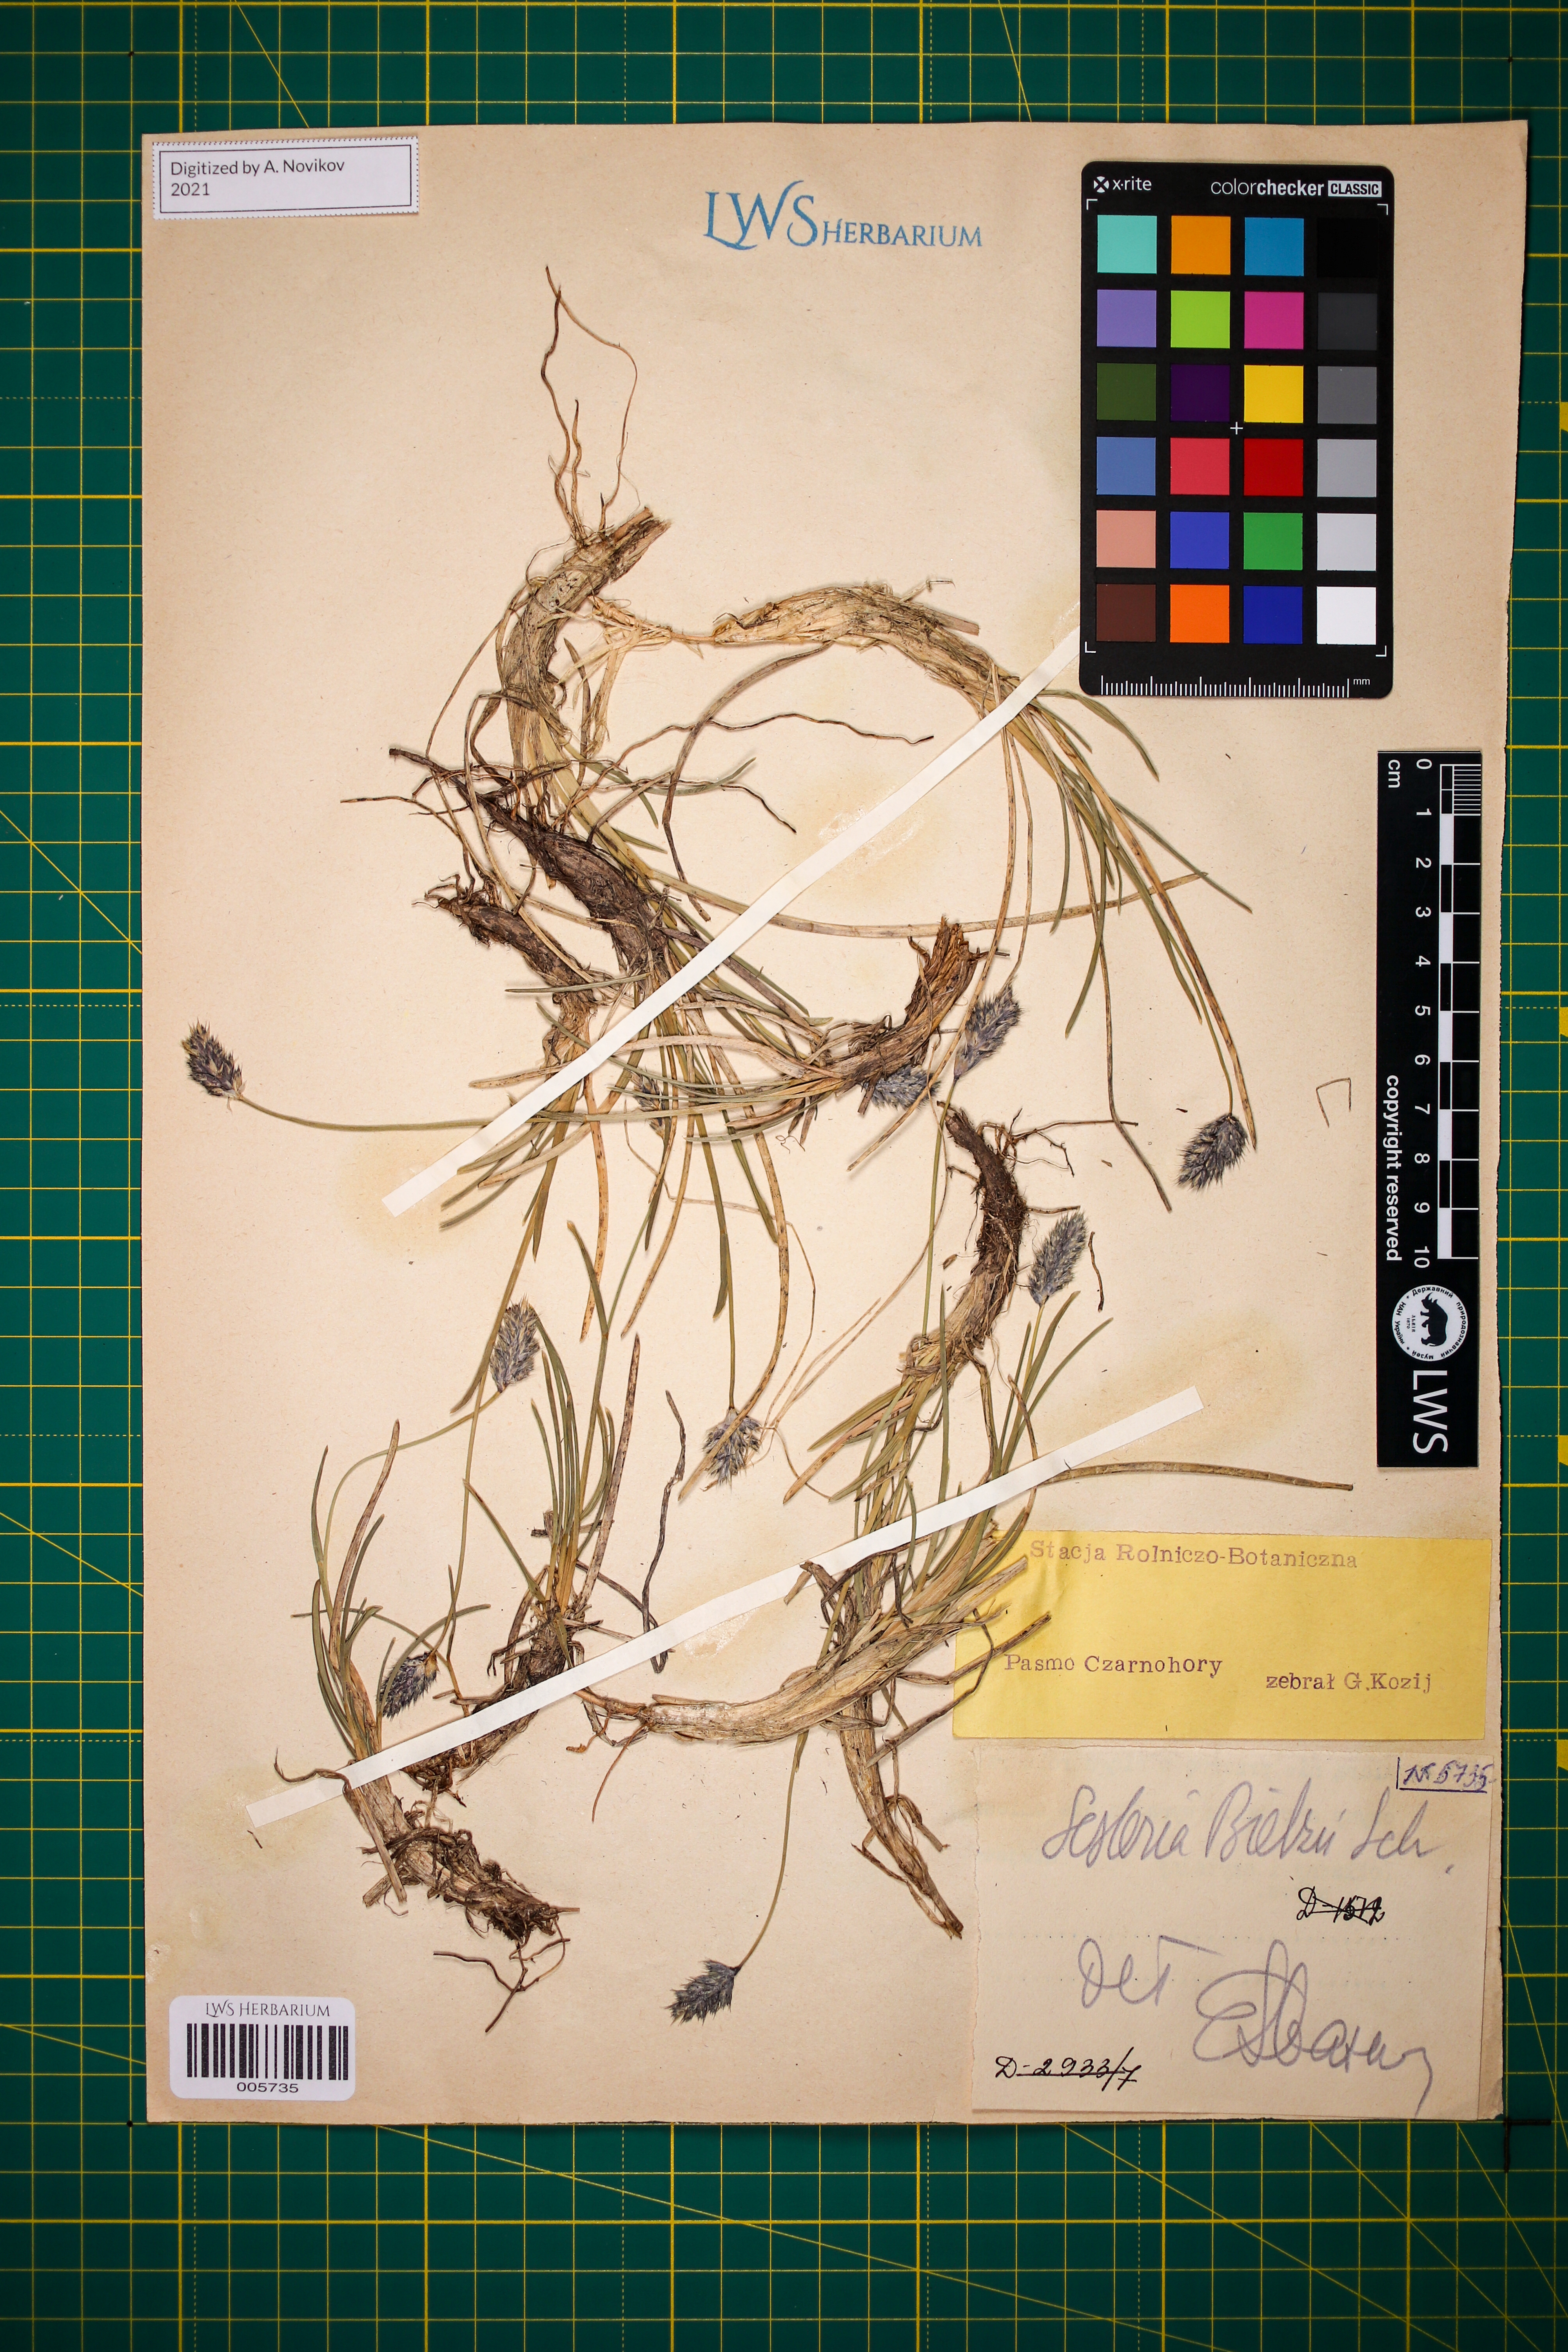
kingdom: Plantae
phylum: Tracheophyta
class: Liliopsida
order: Poales
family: Poaceae
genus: Sesleria
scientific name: Sesleria bielzii
